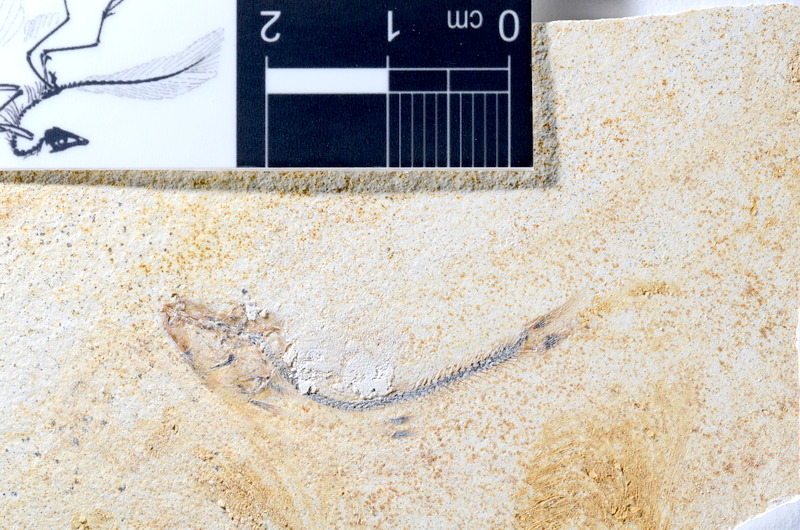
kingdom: Animalia
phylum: Chordata
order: Salmoniformes
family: Orthogonikleithridae
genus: Orthogonikleithrus
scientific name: Orthogonikleithrus hoelli
